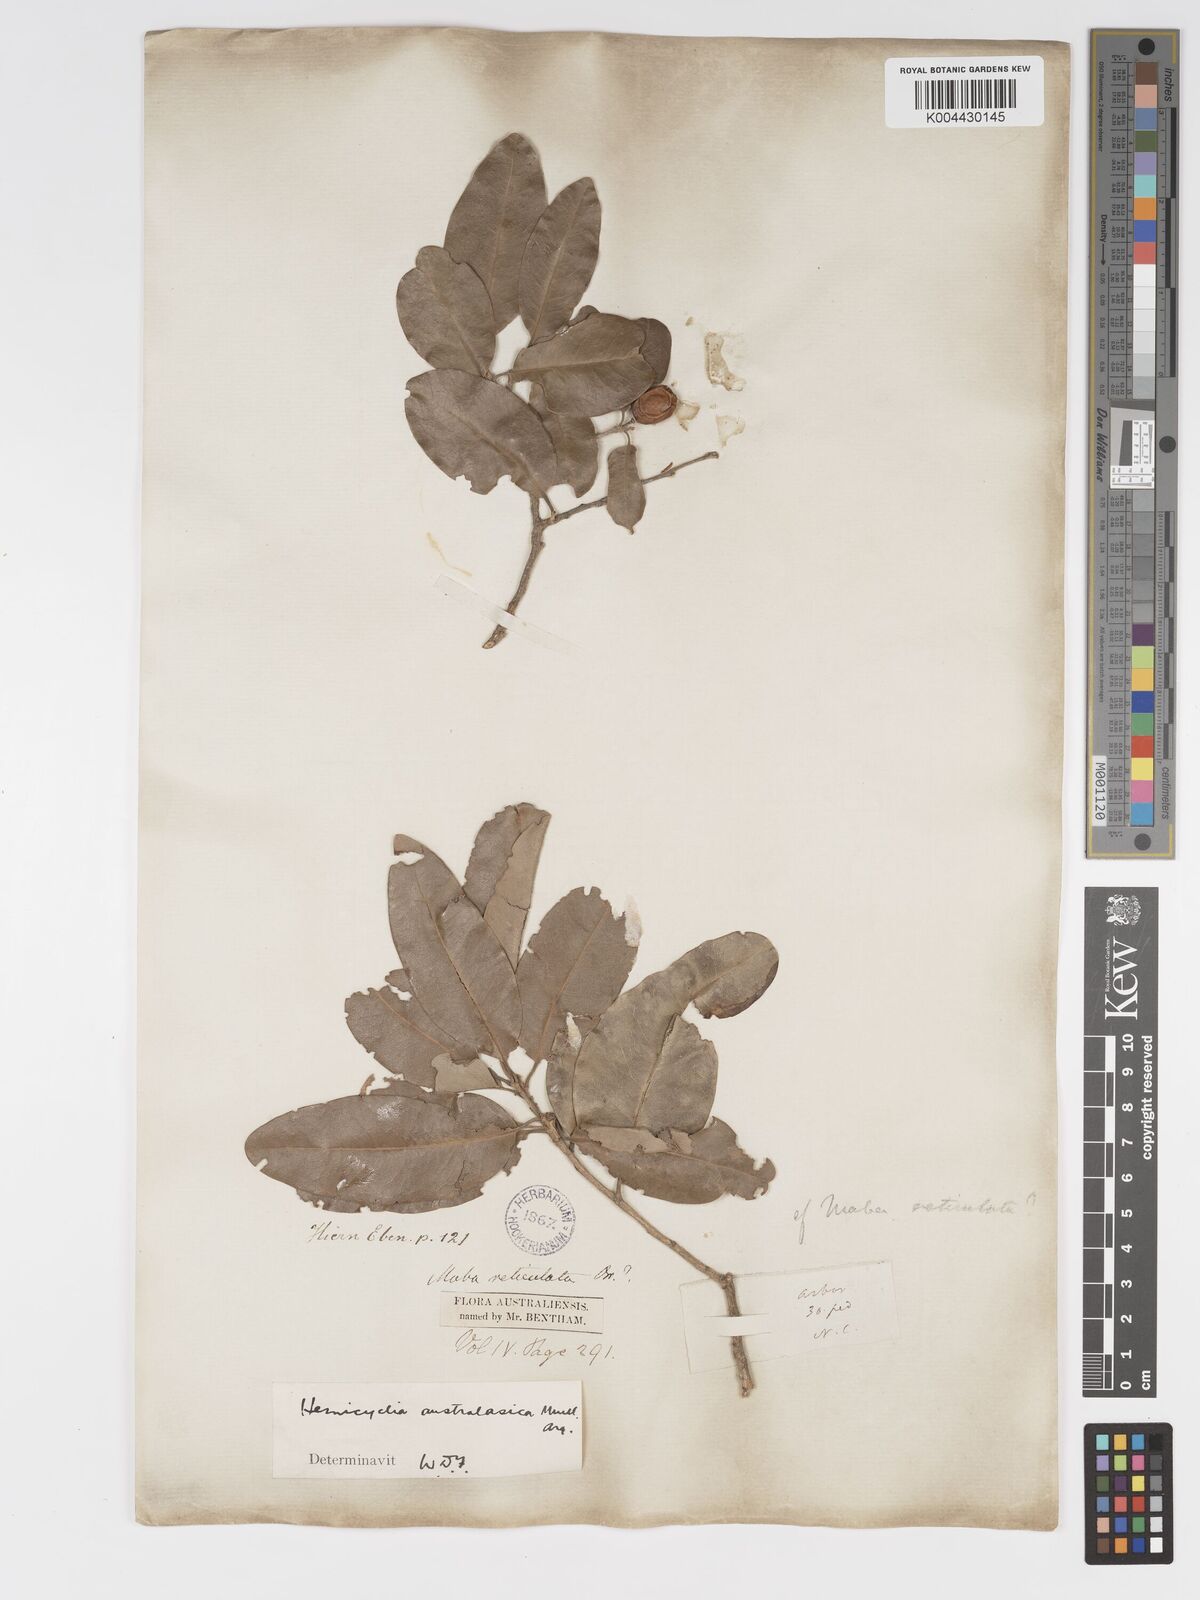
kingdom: Plantae
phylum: Tracheophyta
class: Magnoliopsida
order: Malpighiales
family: Putranjivaceae
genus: Drypetes
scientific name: Drypetes deplanchei
